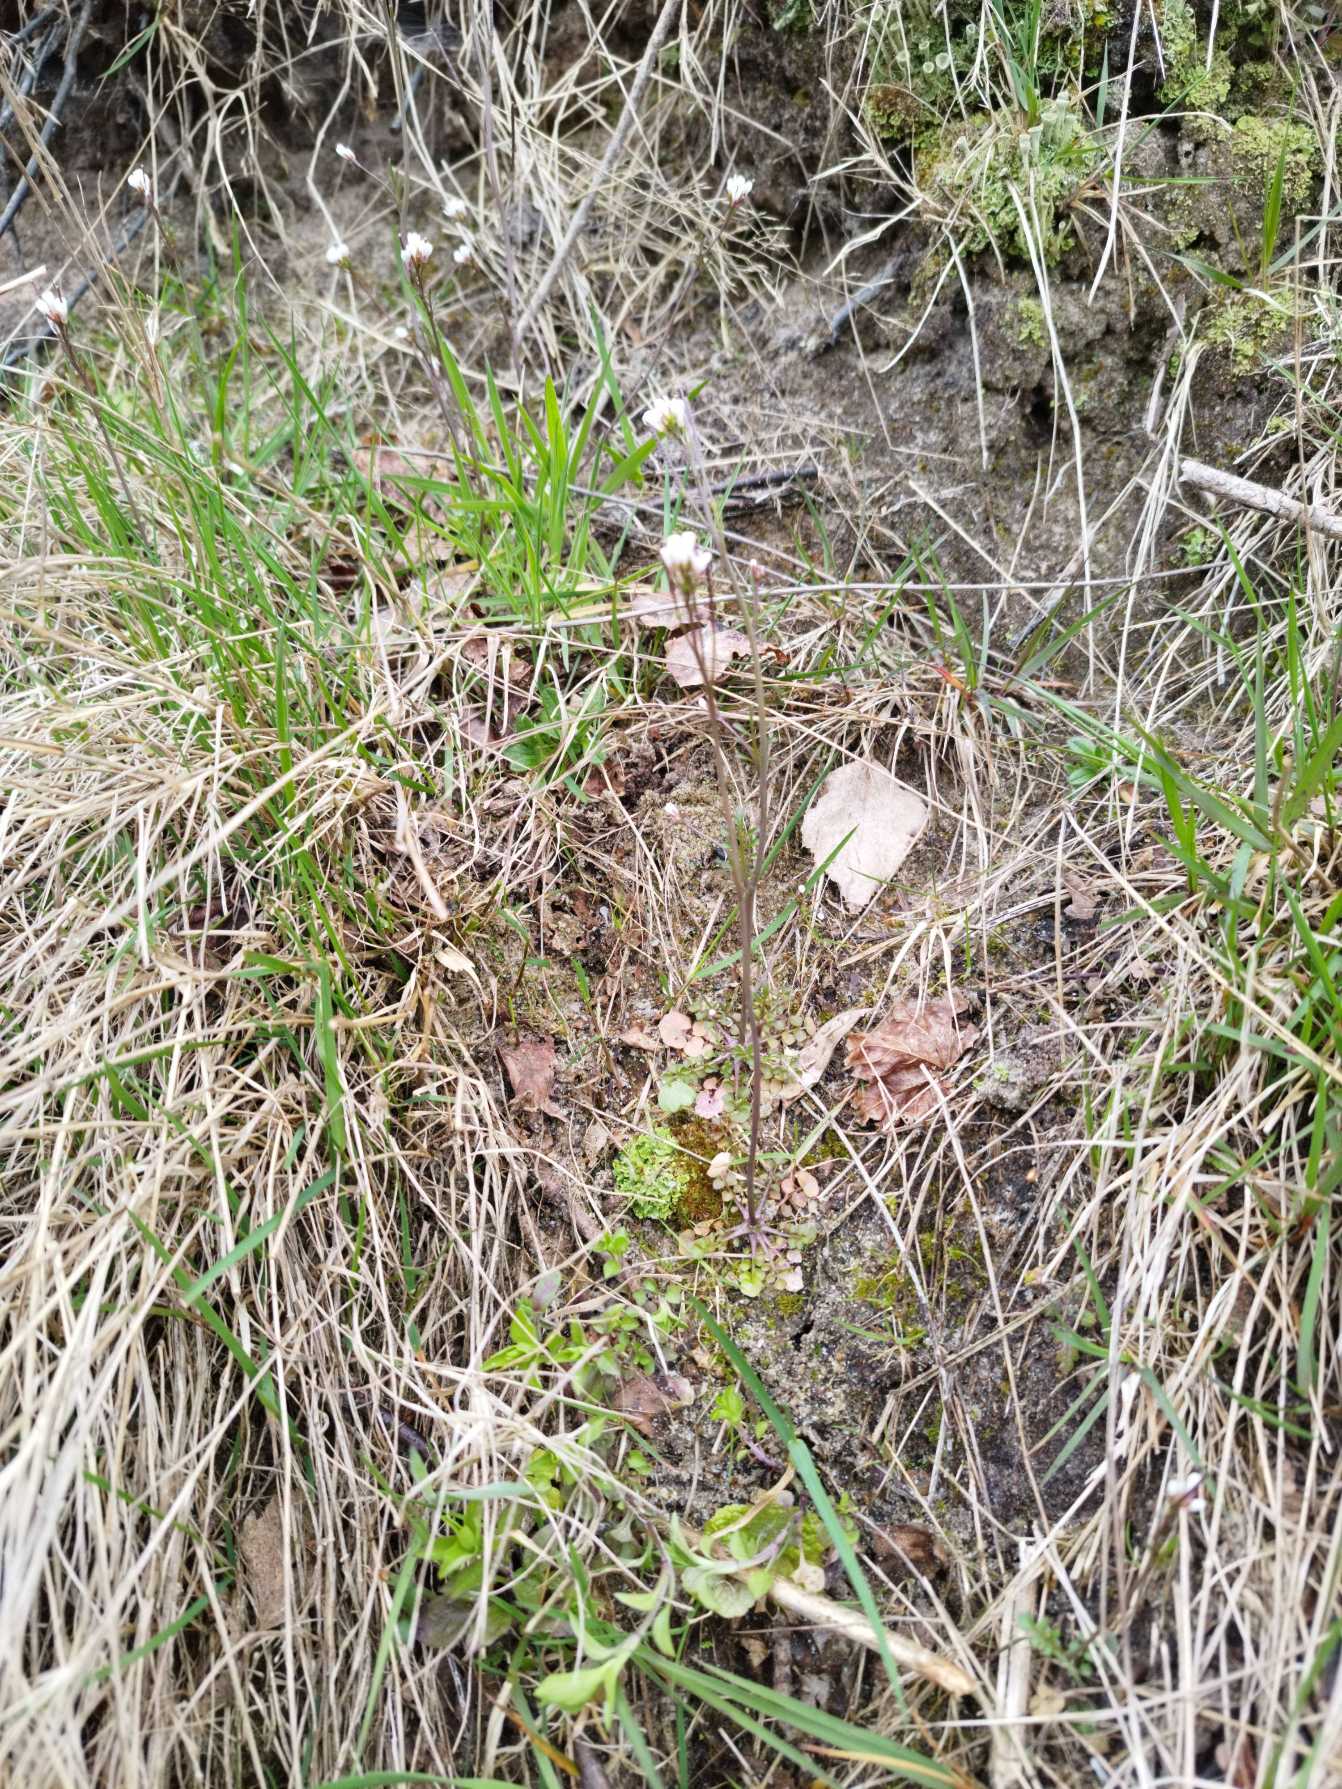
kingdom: Plantae
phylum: Tracheophyta
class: Magnoliopsida
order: Brassicales
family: Brassicaceae
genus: Cardamine
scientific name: Cardamine hirsuta
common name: Roset-springklap
